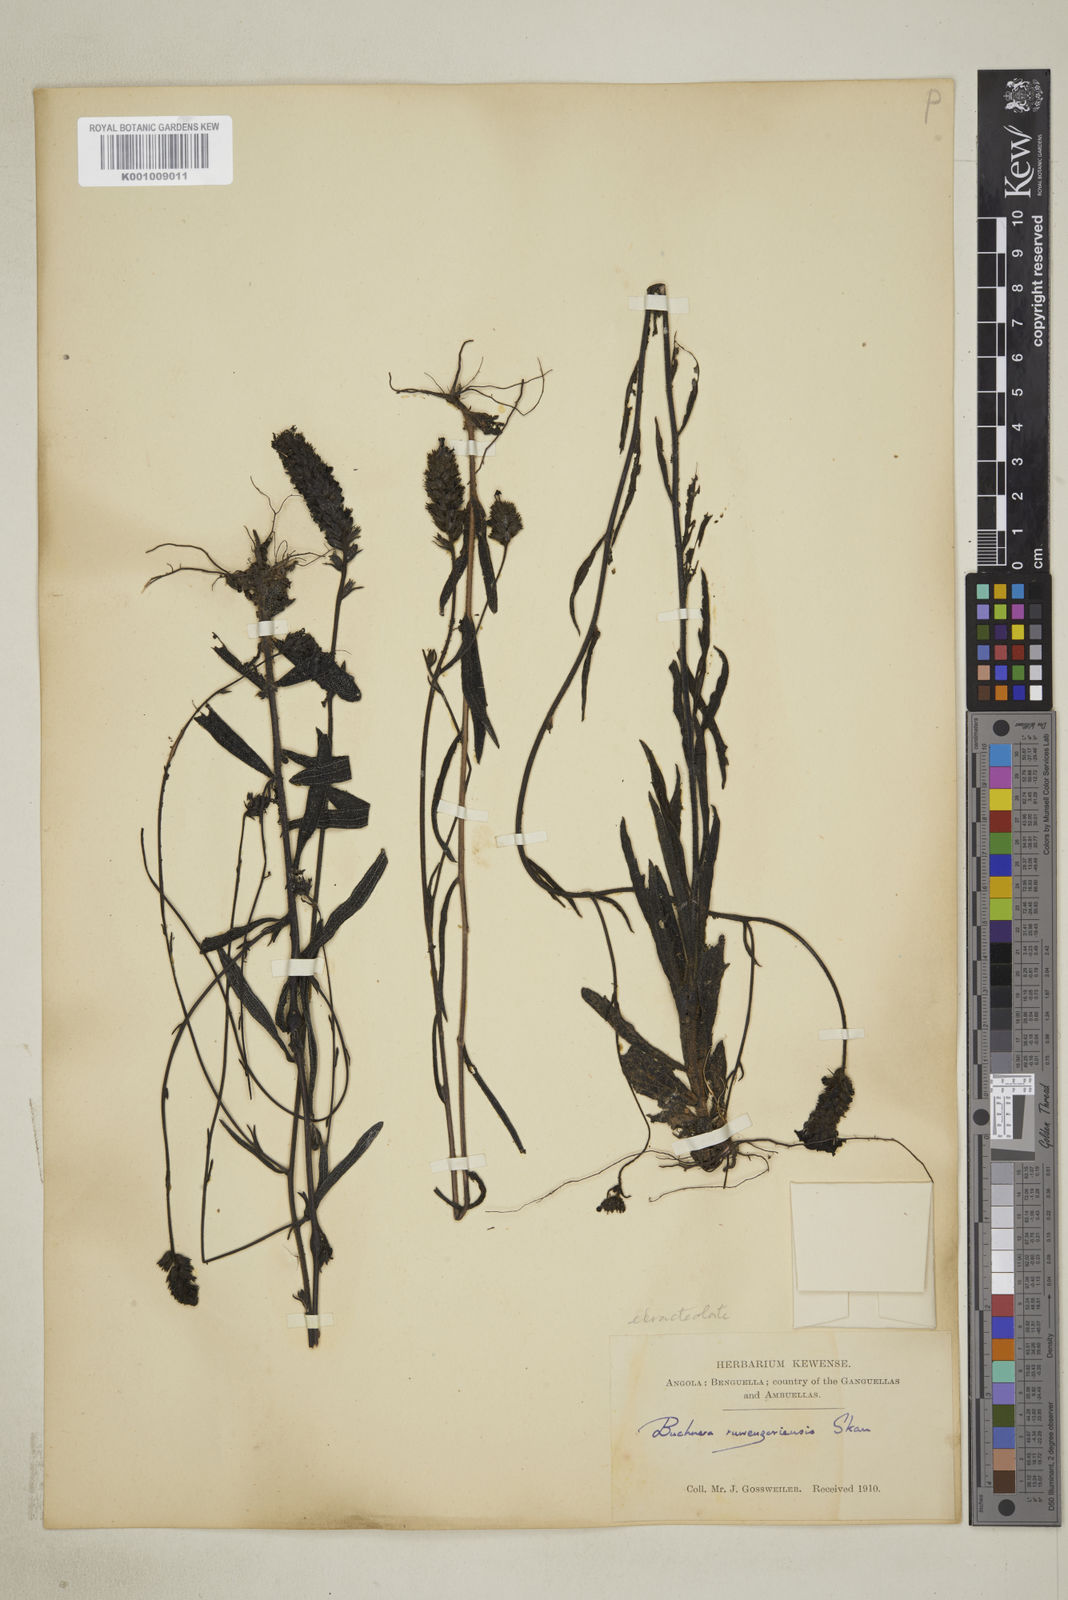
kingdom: Plantae
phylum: Tracheophyta
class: Magnoliopsida
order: Lamiales
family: Orobanchaceae
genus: Buchnera
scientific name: Buchnera ruwenzoriensis
